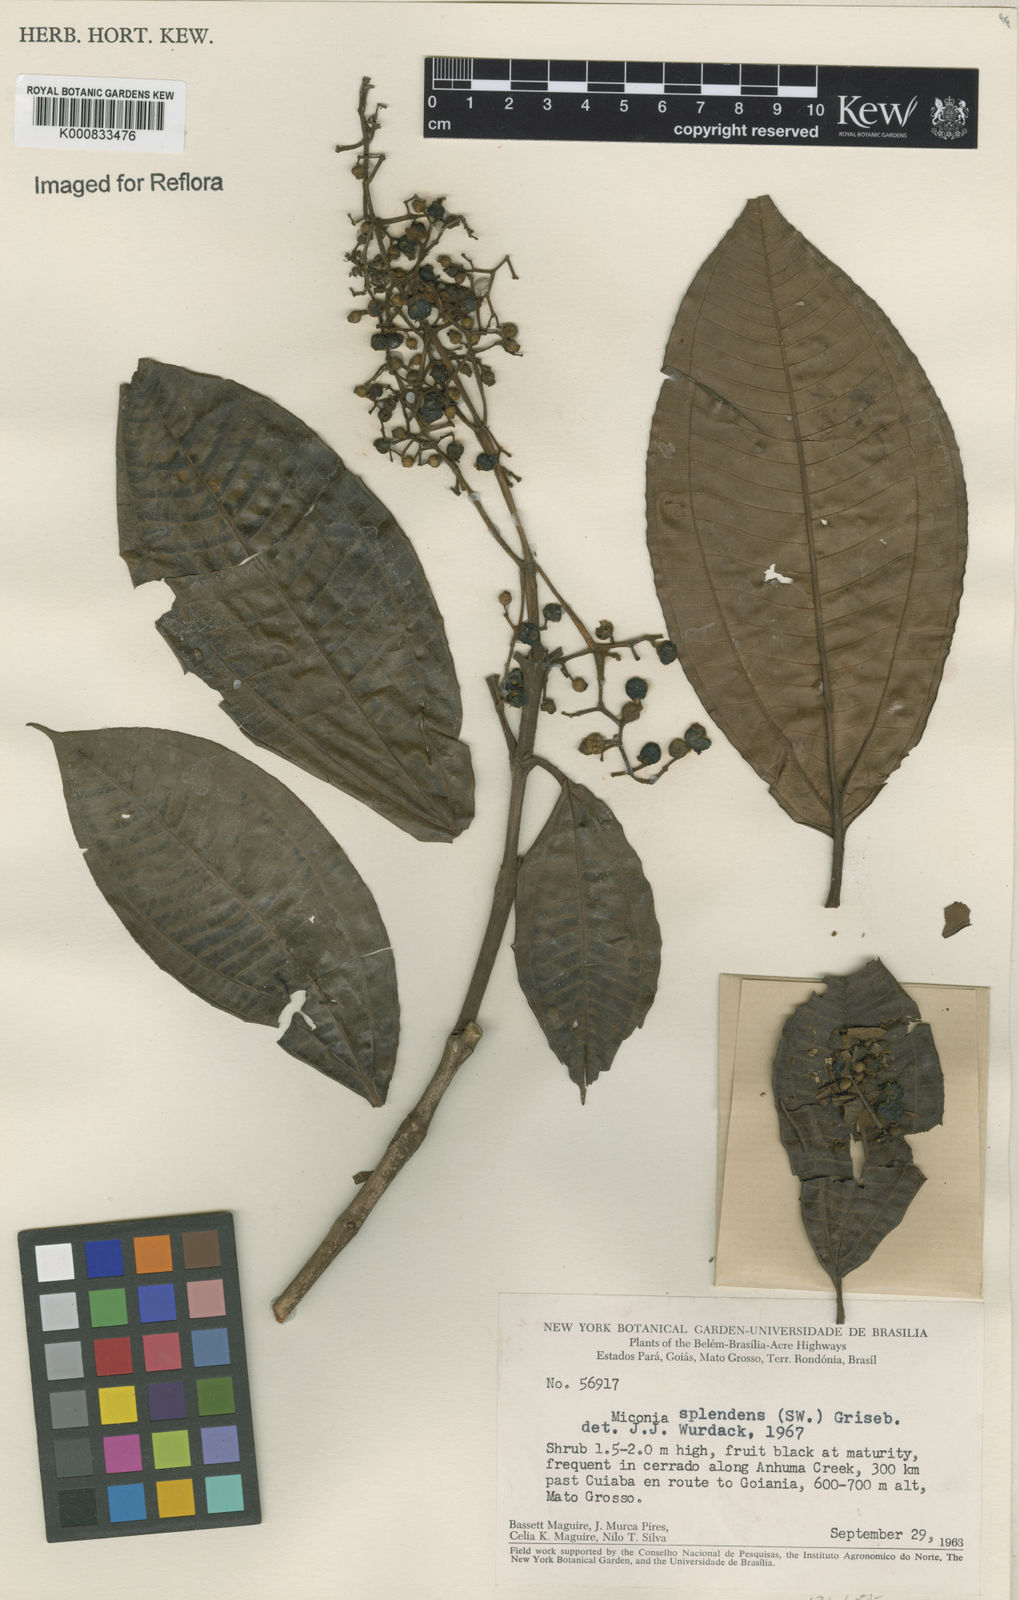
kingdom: Plantae
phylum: Tracheophyta
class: Magnoliopsida
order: Myrtales
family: Melastomataceae
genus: Miconia
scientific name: Miconia splendens
